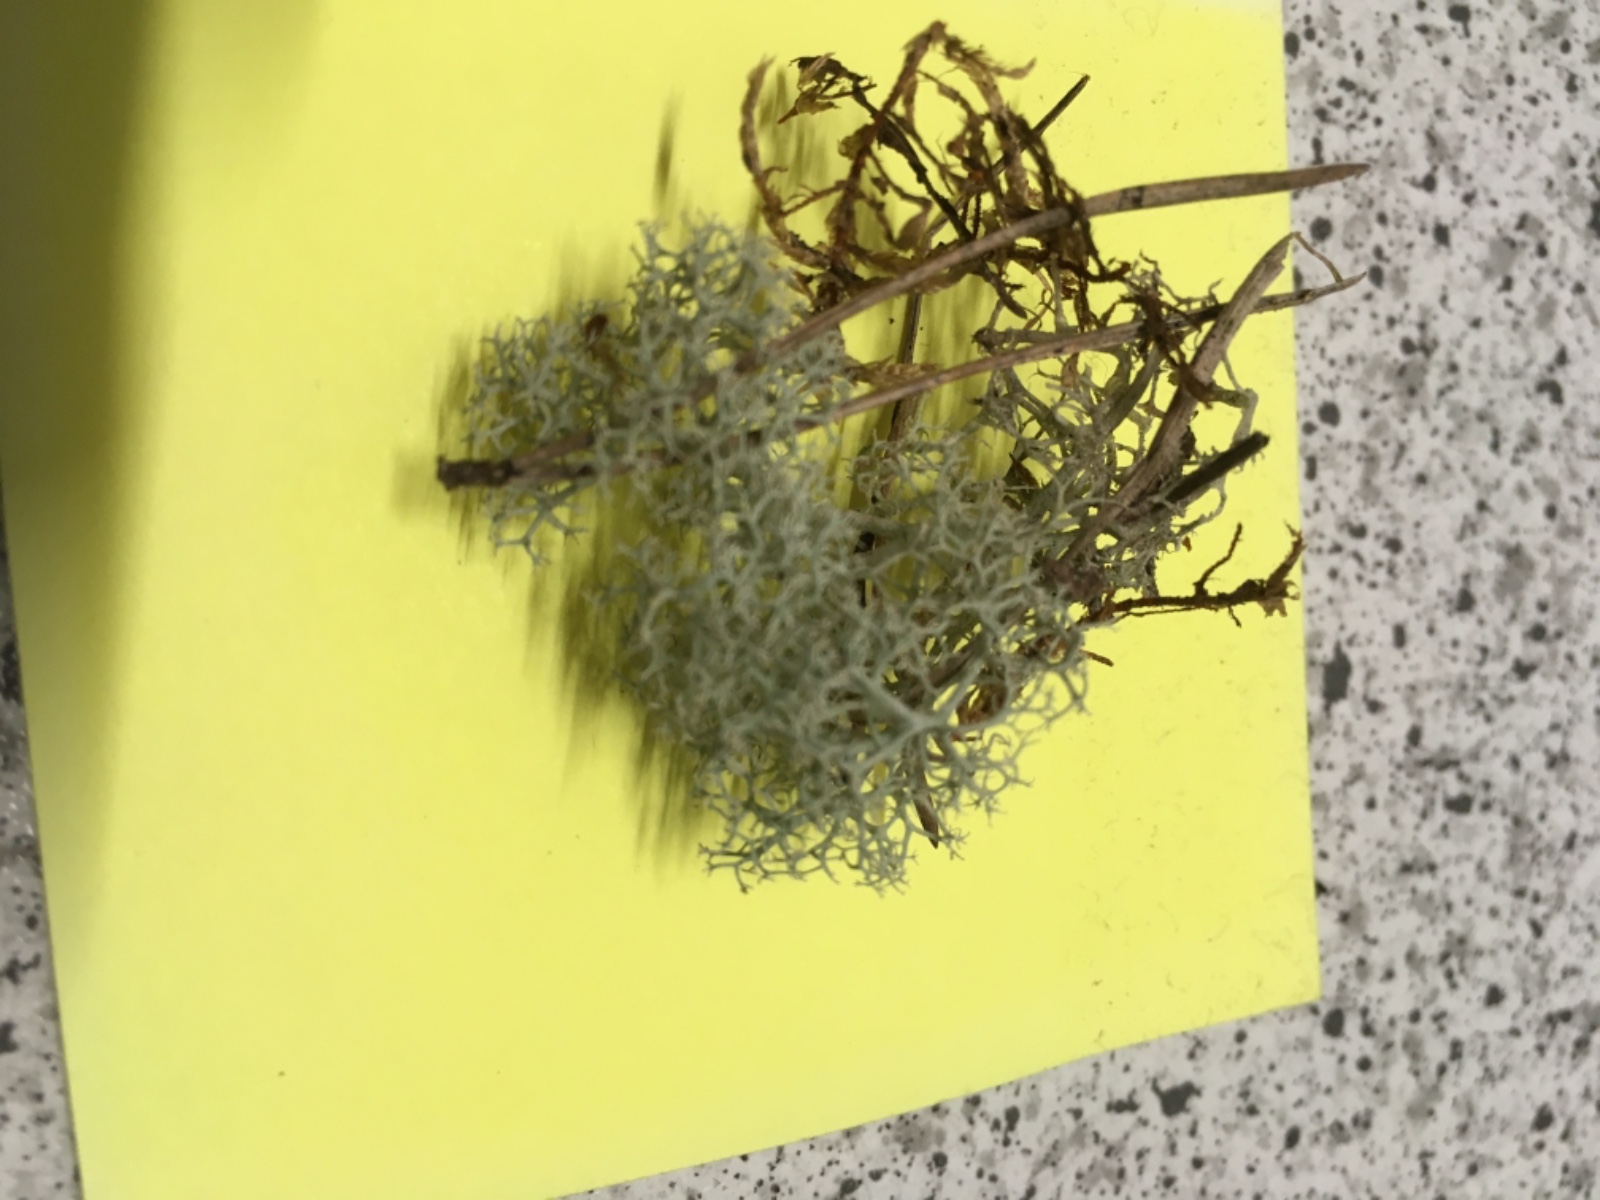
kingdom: Fungi
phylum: Ascomycota
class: Lecanoromycetes
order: Lecanorales
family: Cladoniaceae
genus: Cladonia
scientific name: Cladonia portentosa
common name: hede-rensdyrlav
